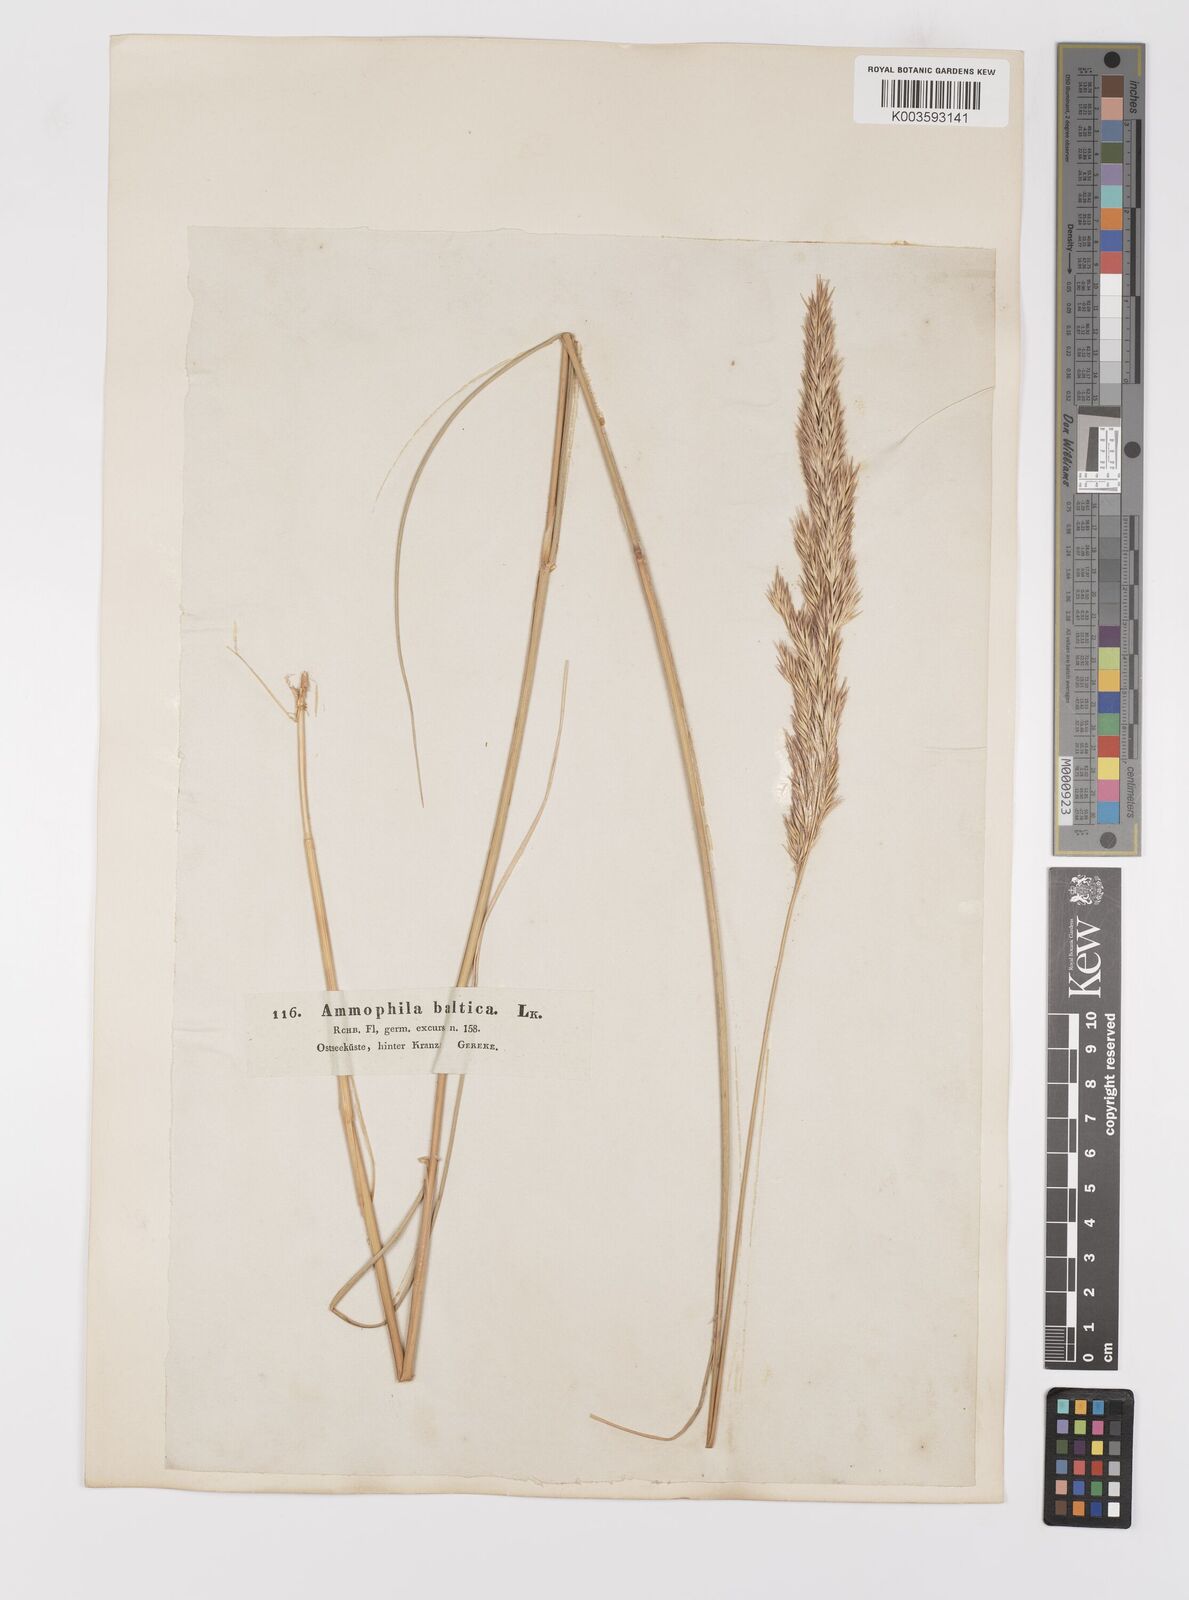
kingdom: Plantae
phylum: Tracheophyta
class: Liliopsida
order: Poales
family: Poaceae
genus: Calamagrostis
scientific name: Calamagrostis baltica
